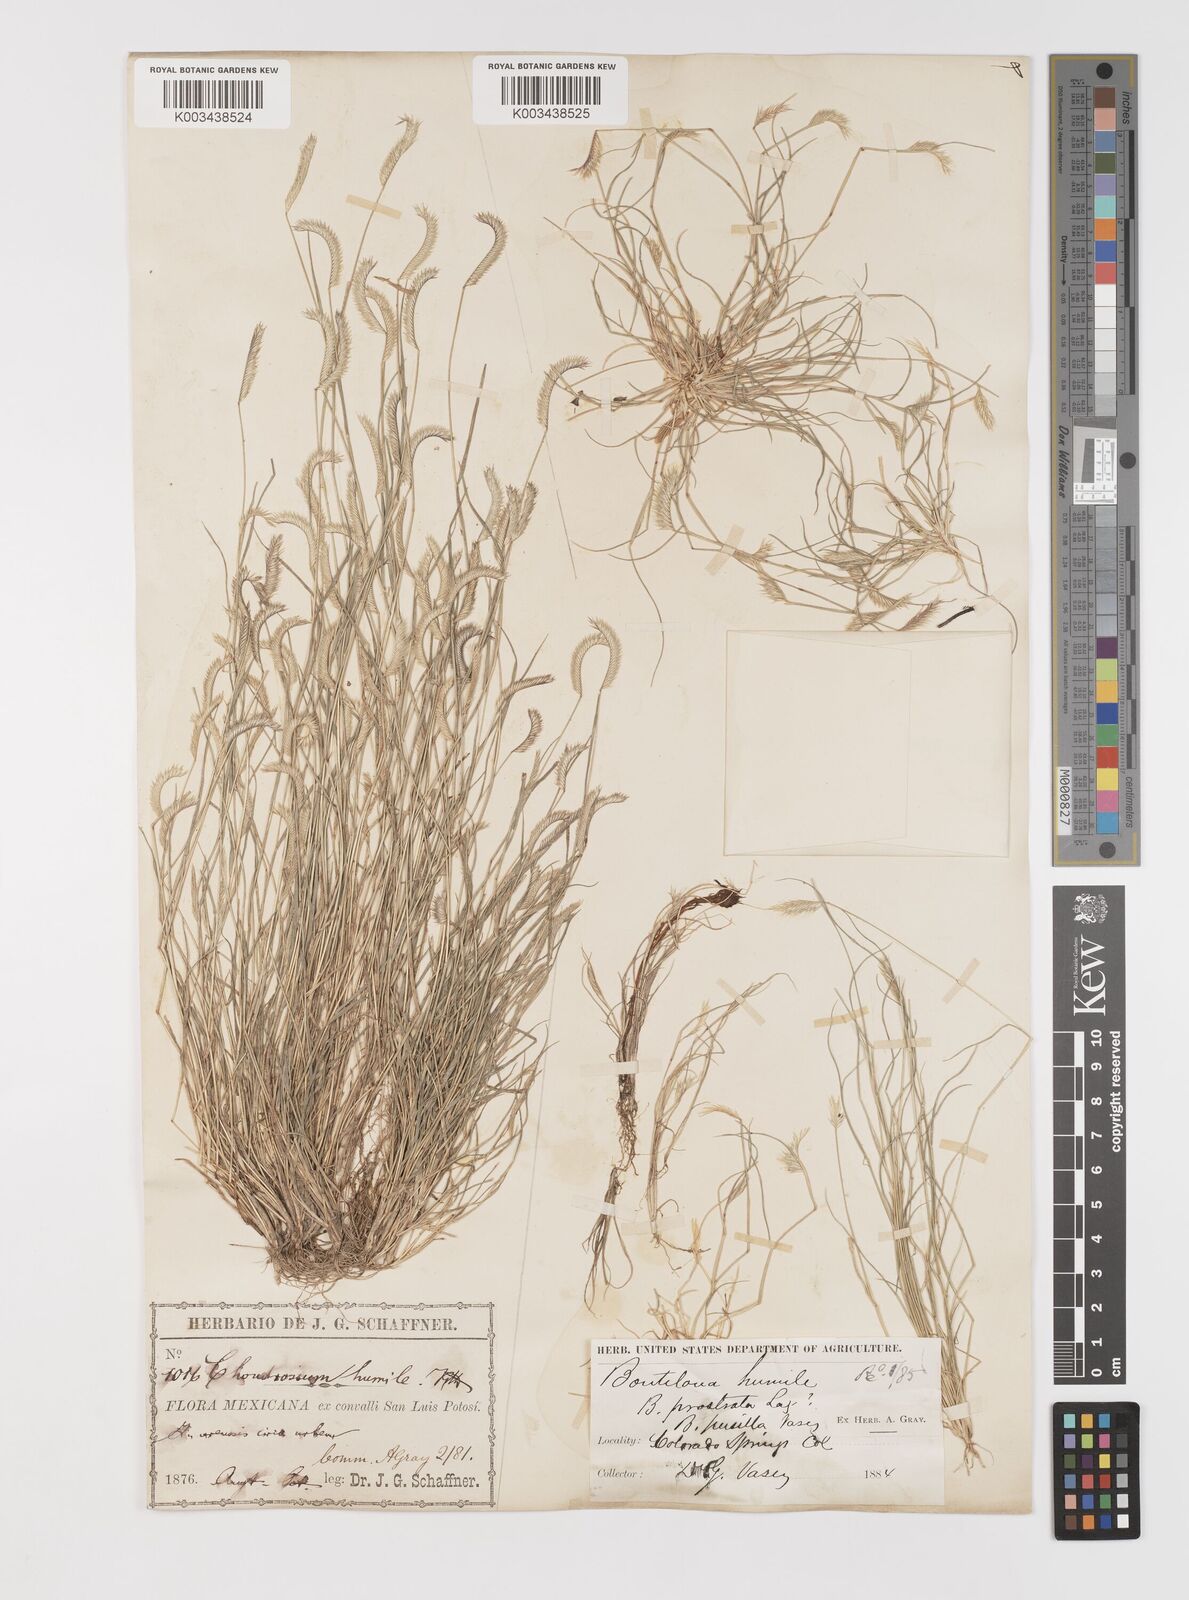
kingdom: Plantae
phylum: Tracheophyta
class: Liliopsida
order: Poales
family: Poaceae
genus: Bouteloua
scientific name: Bouteloua simplex
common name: Mat grama
